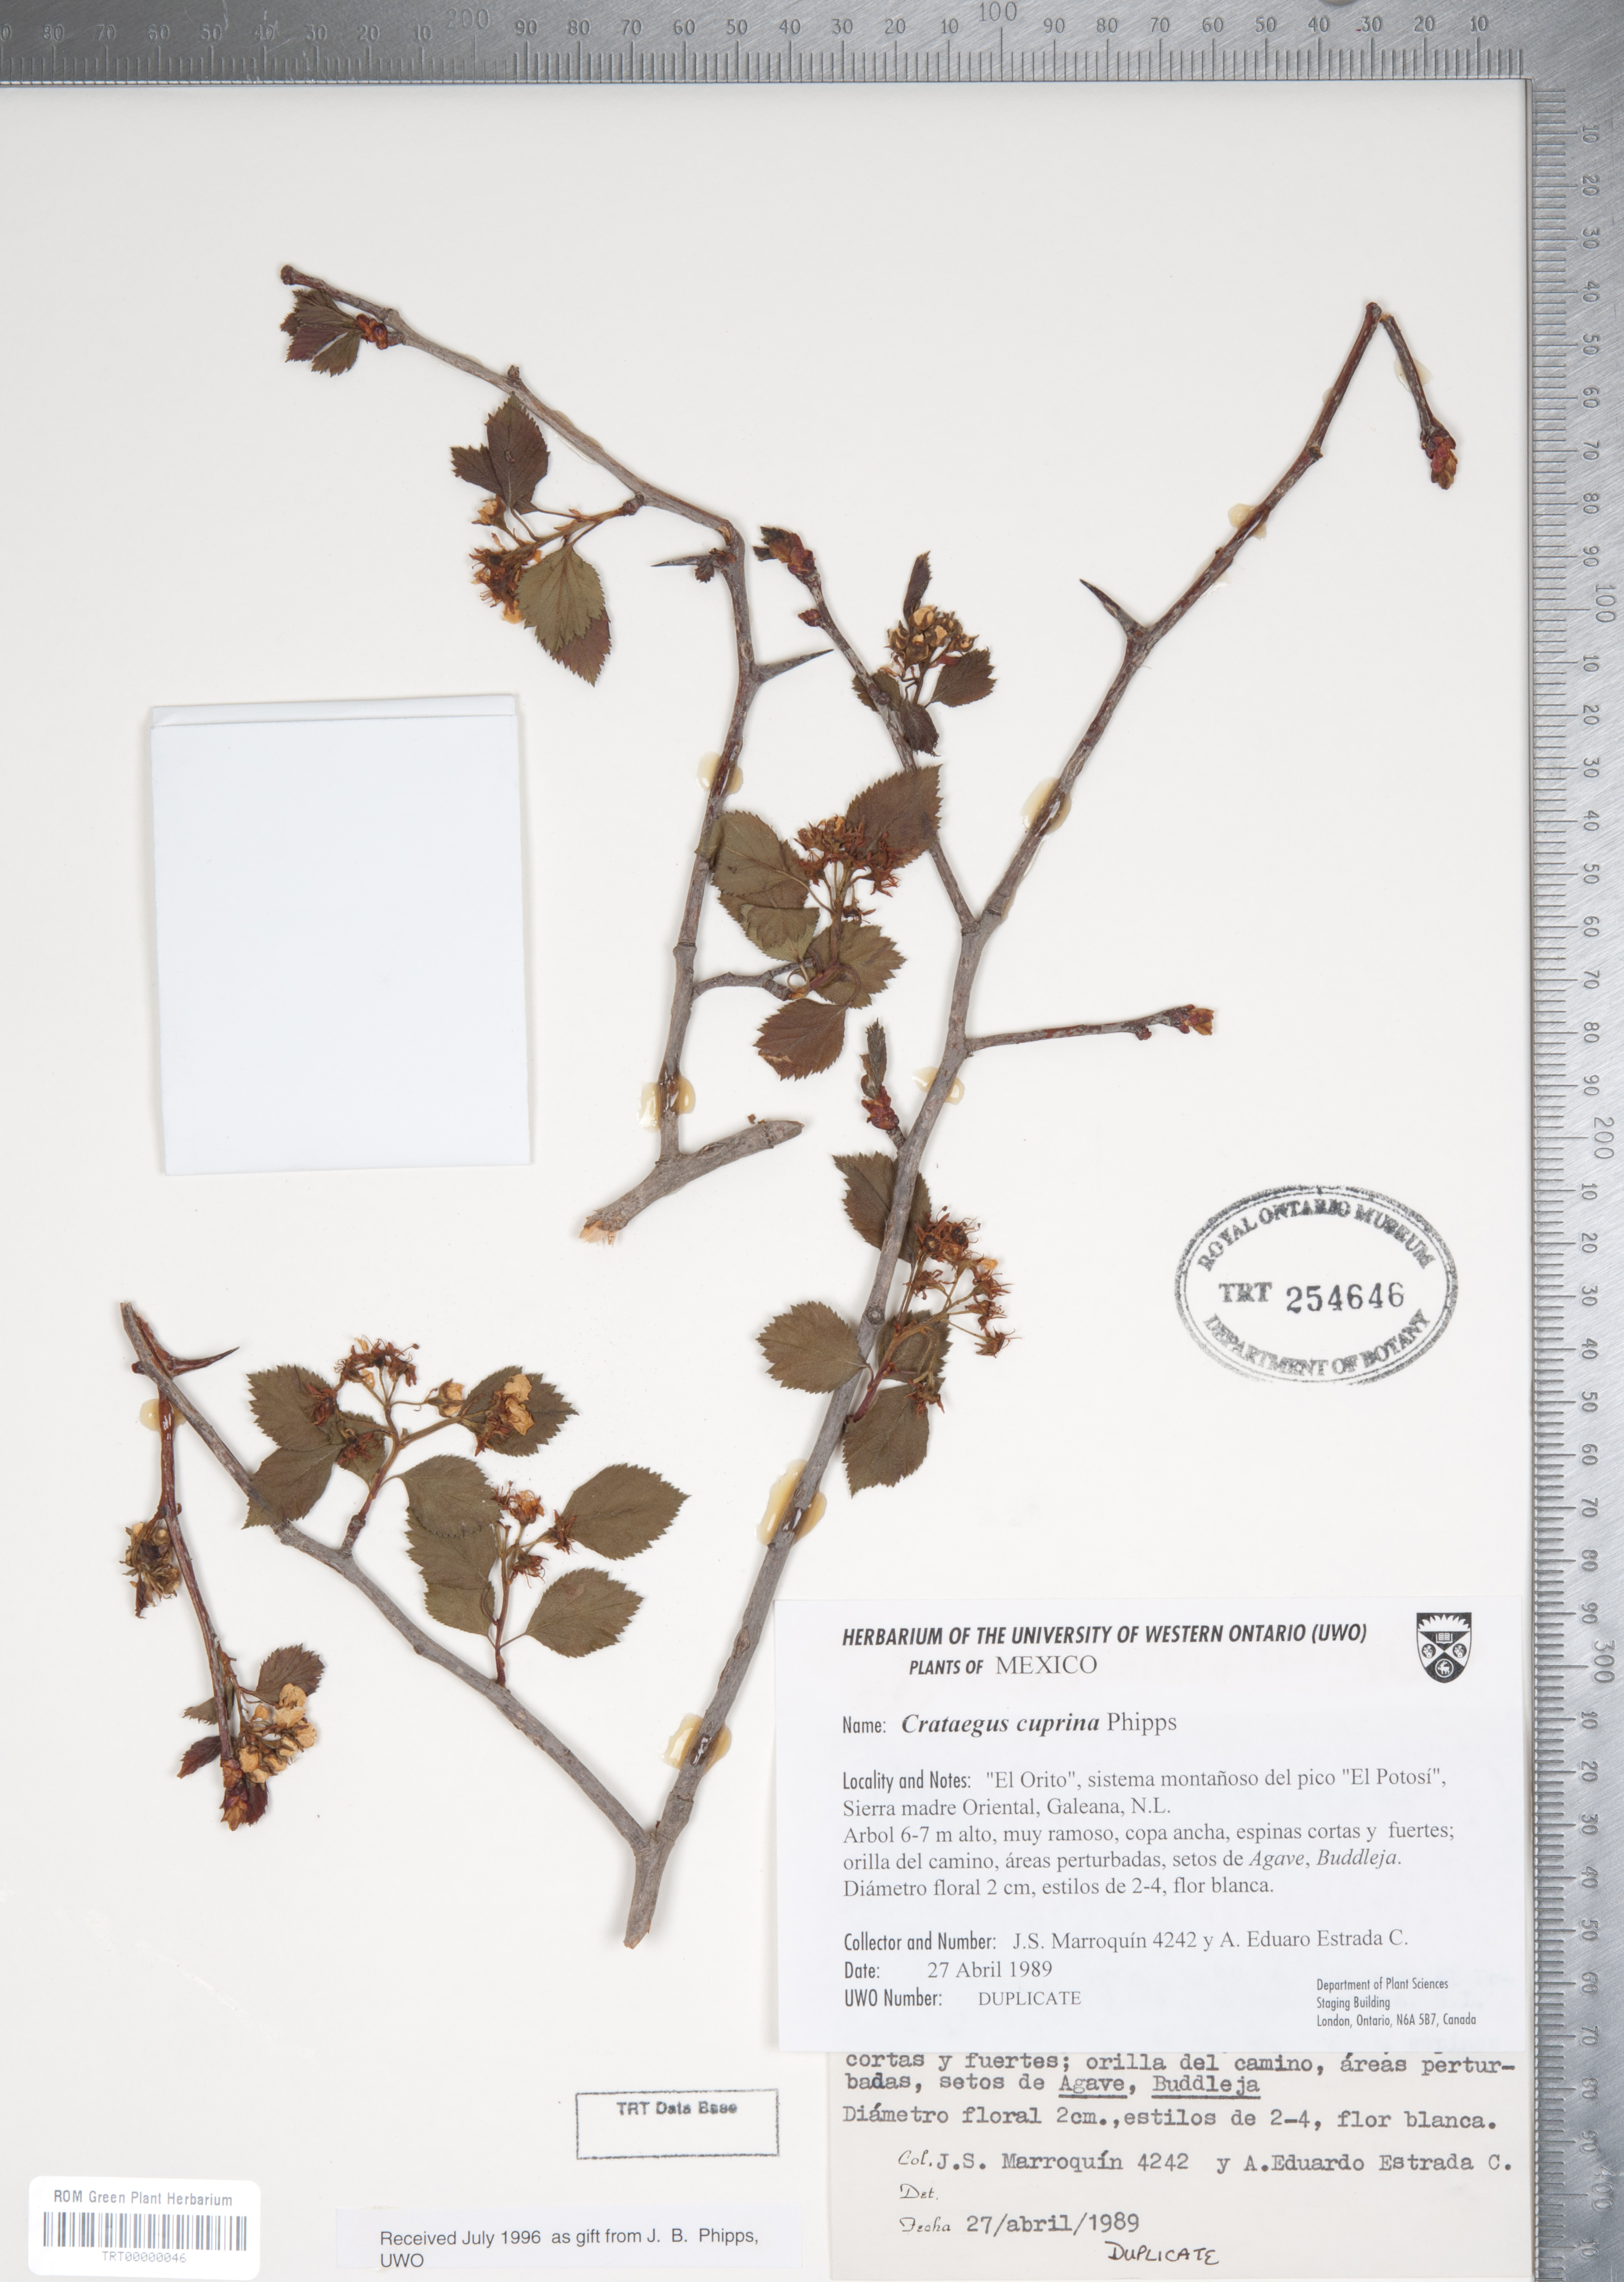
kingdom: Plantae
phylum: Tracheophyta
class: Magnoliopsida
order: Rosales
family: Rosaceae
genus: Crataegus
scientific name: Crataegus cuprina
